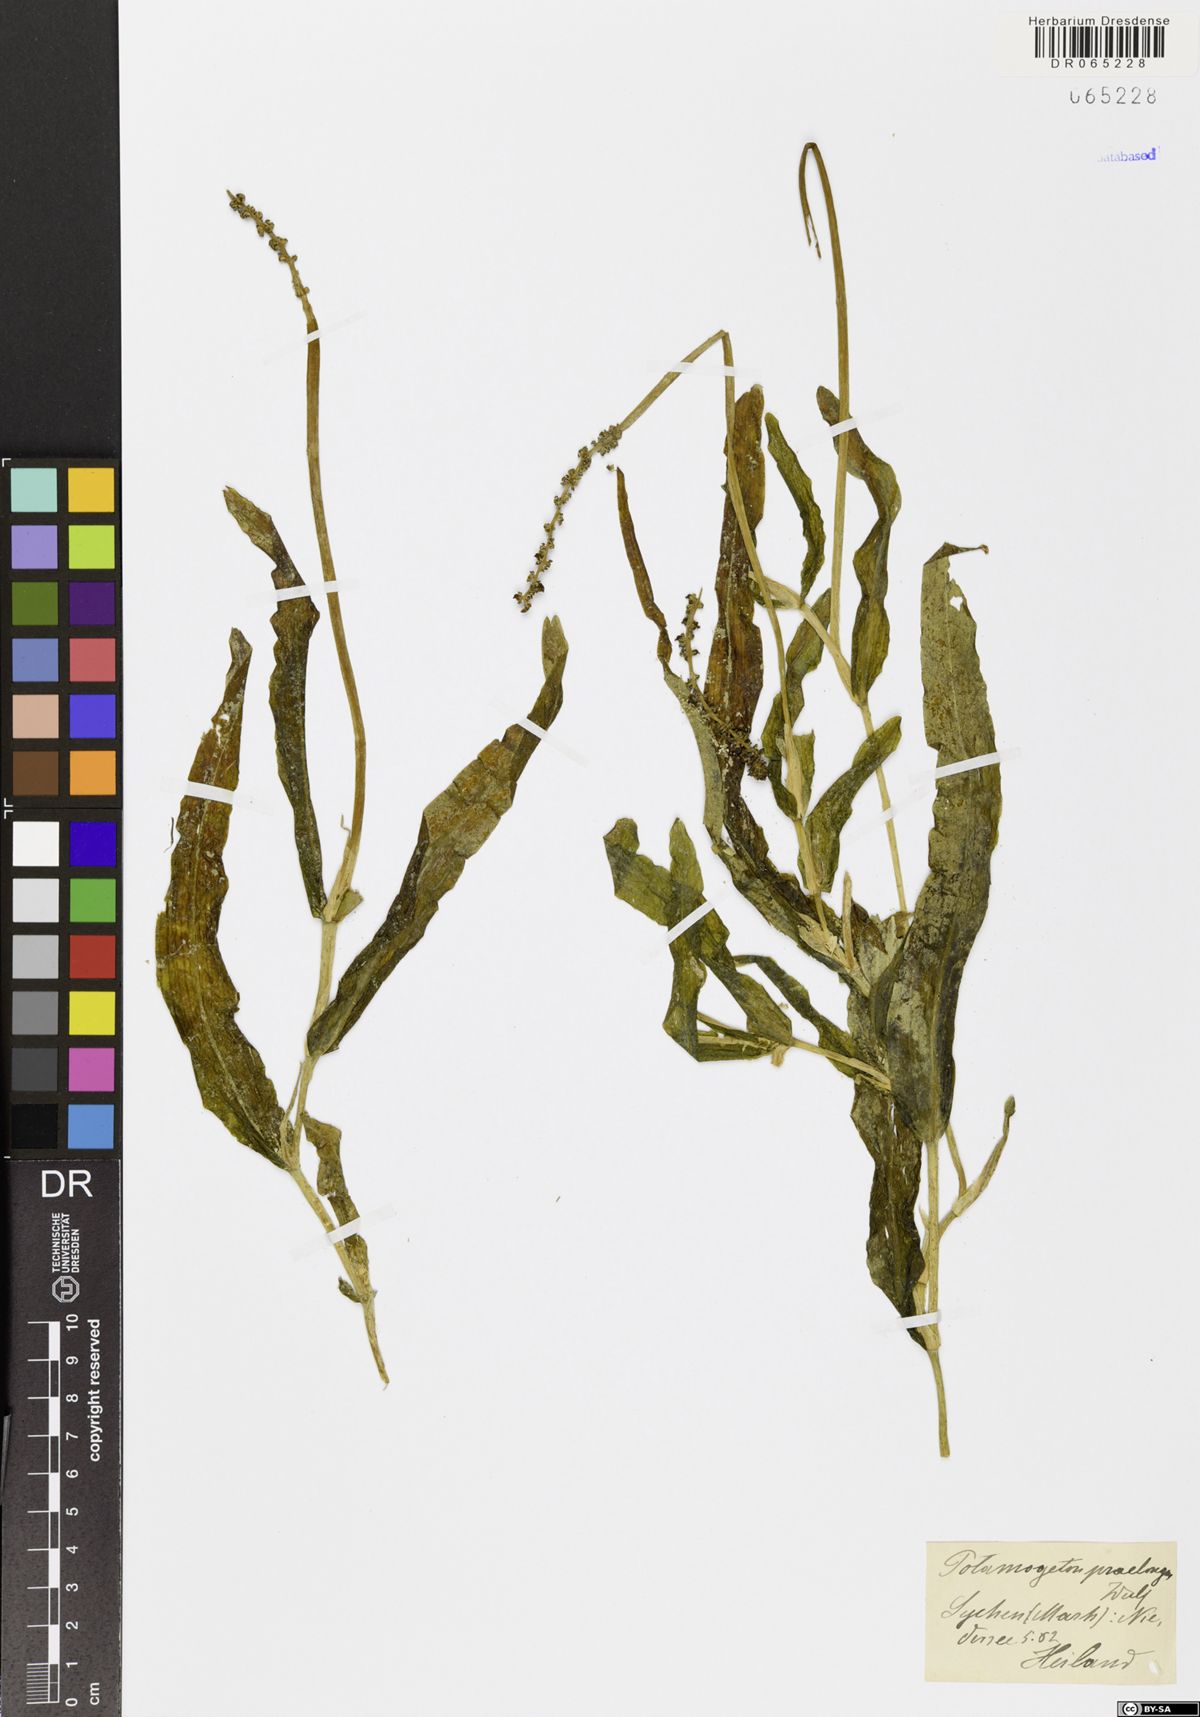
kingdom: Plantae
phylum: Tracheophyta
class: Liliopsida
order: Alismatales
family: Potamogetonaceae
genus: Potamogeton
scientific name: Potamogeton praelongus
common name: Long-stalked pondweed
